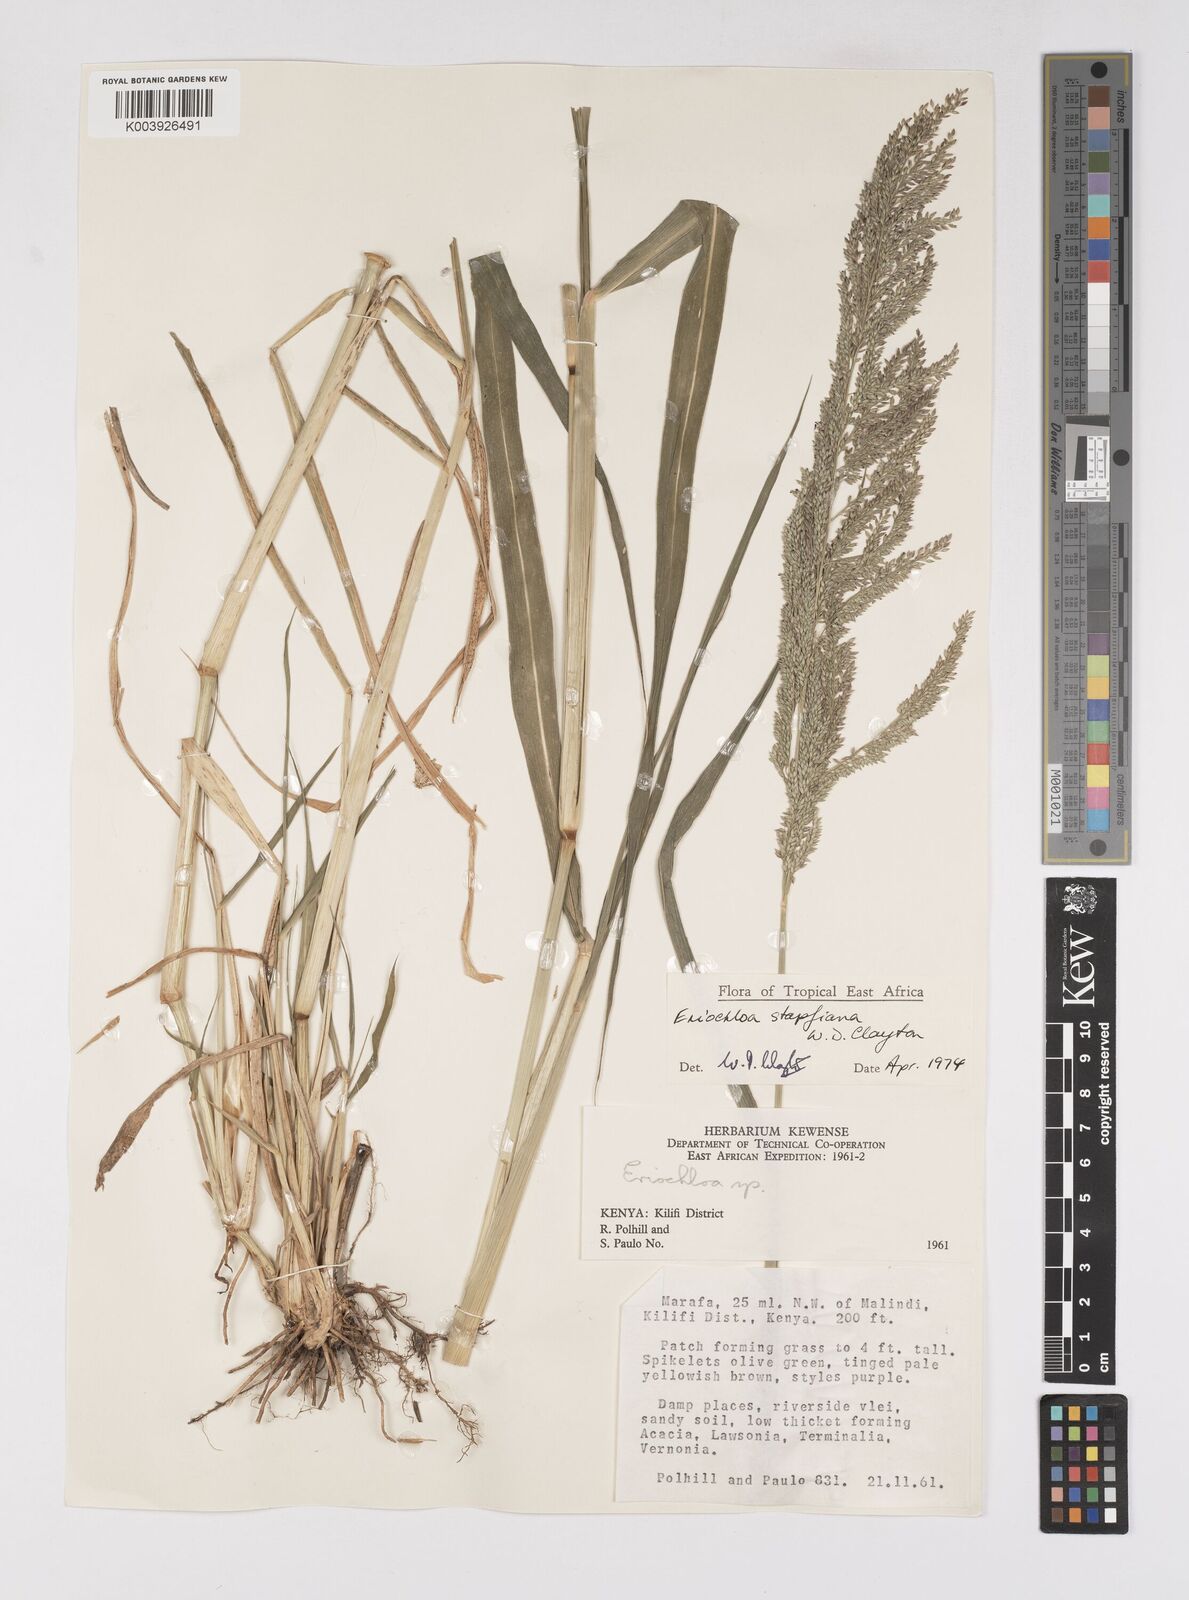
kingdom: Plantae
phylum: Tracheophyta
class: Liliopsida
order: Poales
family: Poaceae
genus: Eriochloa
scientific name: Eriochloa stapfiana
